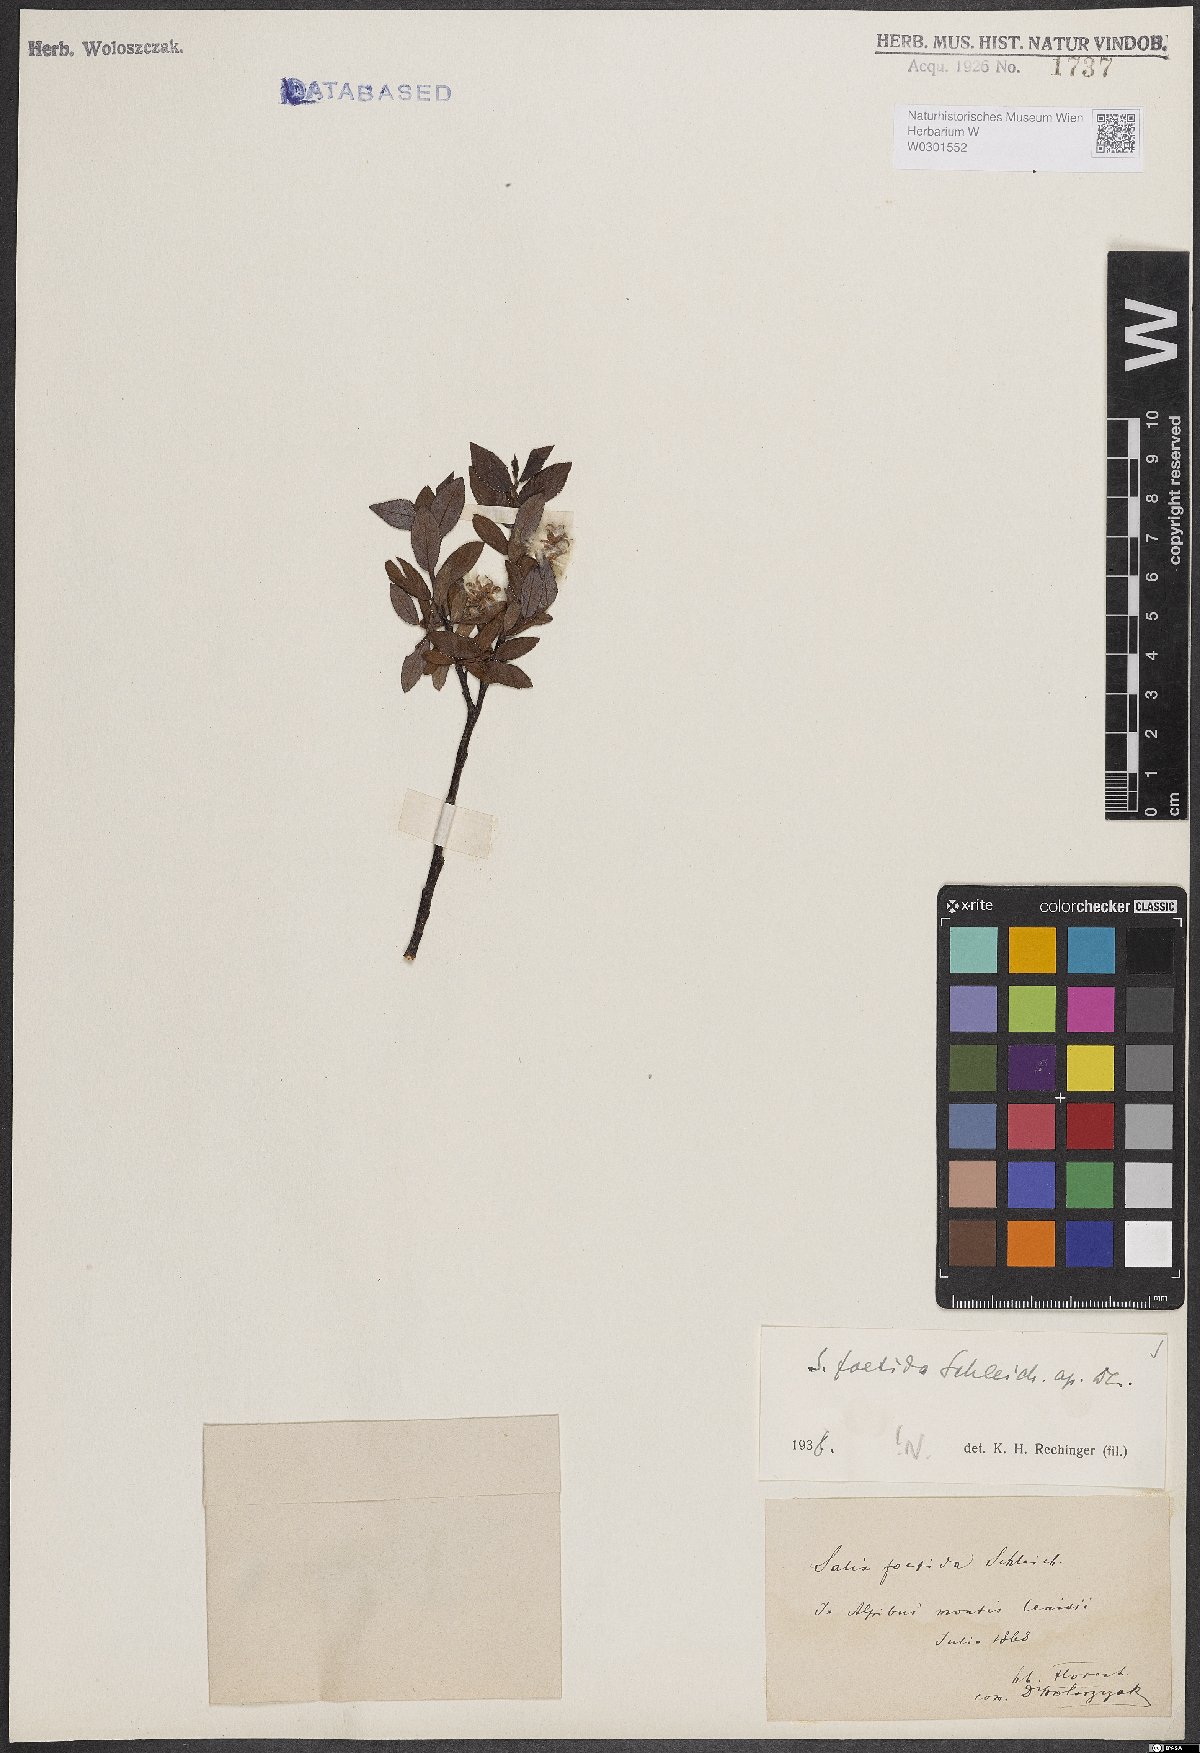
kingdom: Plantae
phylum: Tracheophyta
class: Magnoliopsida
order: Malpighiales
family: Salicaceae
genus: Salix
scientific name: Salix foetida
